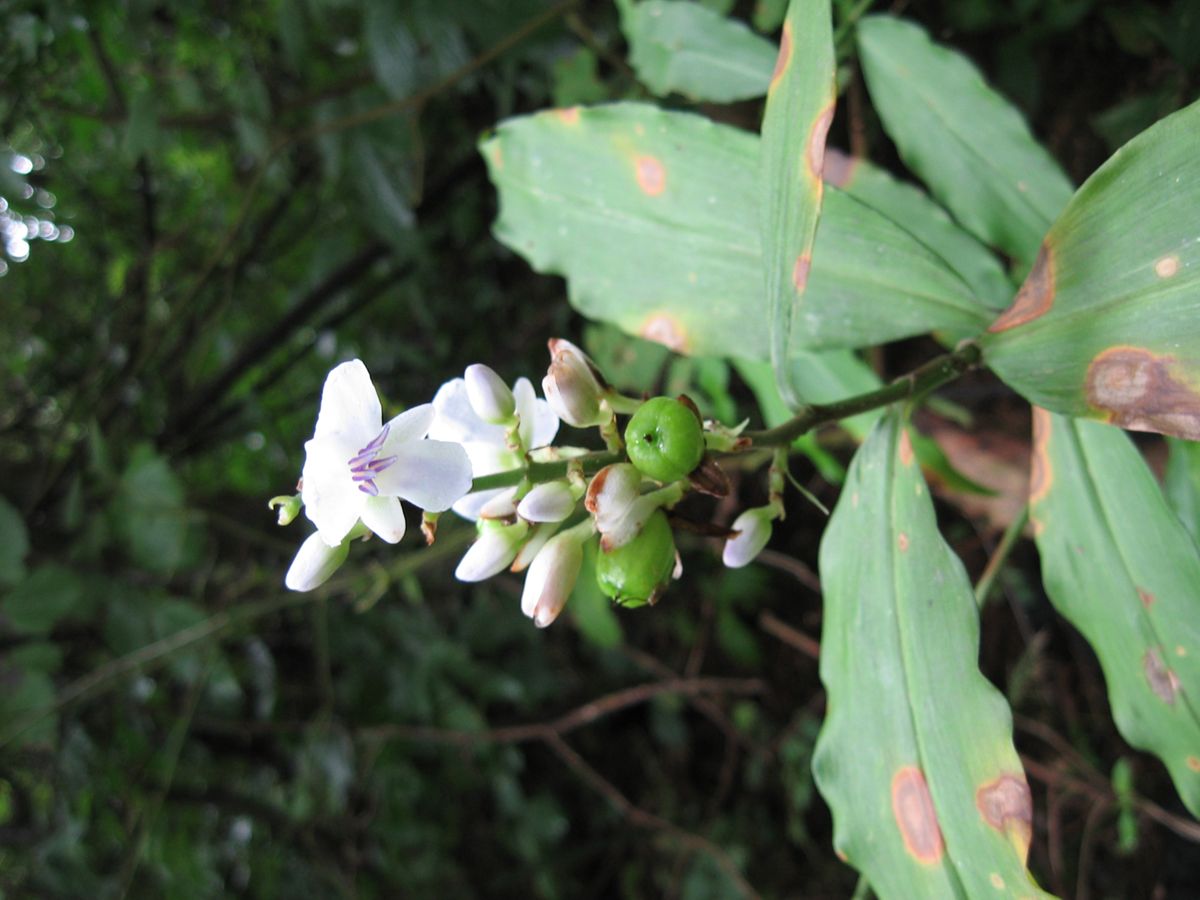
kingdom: Plantae
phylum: Tracheophyta
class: Liliopsida
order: Commelinales
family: Commelinaceae
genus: Dichorisandra
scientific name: Dichorisandra amabilis
